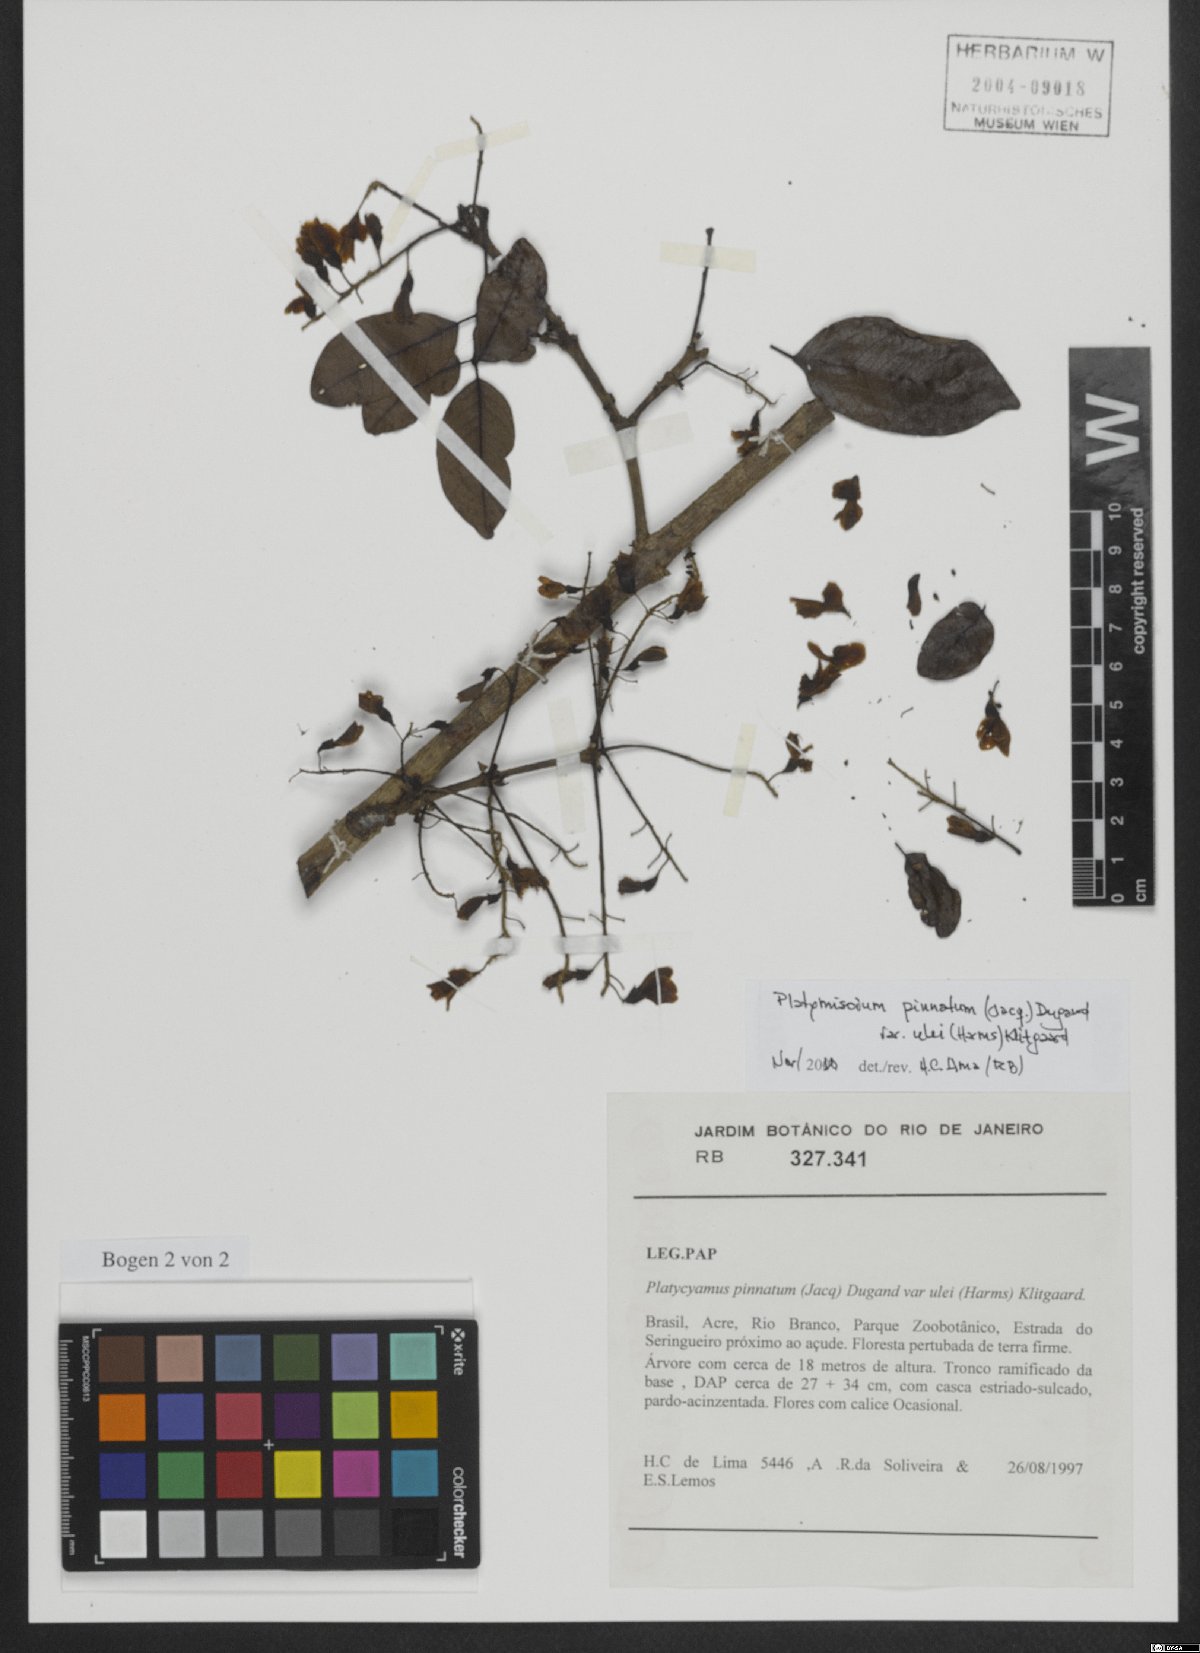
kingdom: Plantae
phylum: Tracheophyta
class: Magnoliopsida
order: Fabales
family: Fabaceae
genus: Platymiscium
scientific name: Platymiscium pinnatum
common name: Panama redwood
